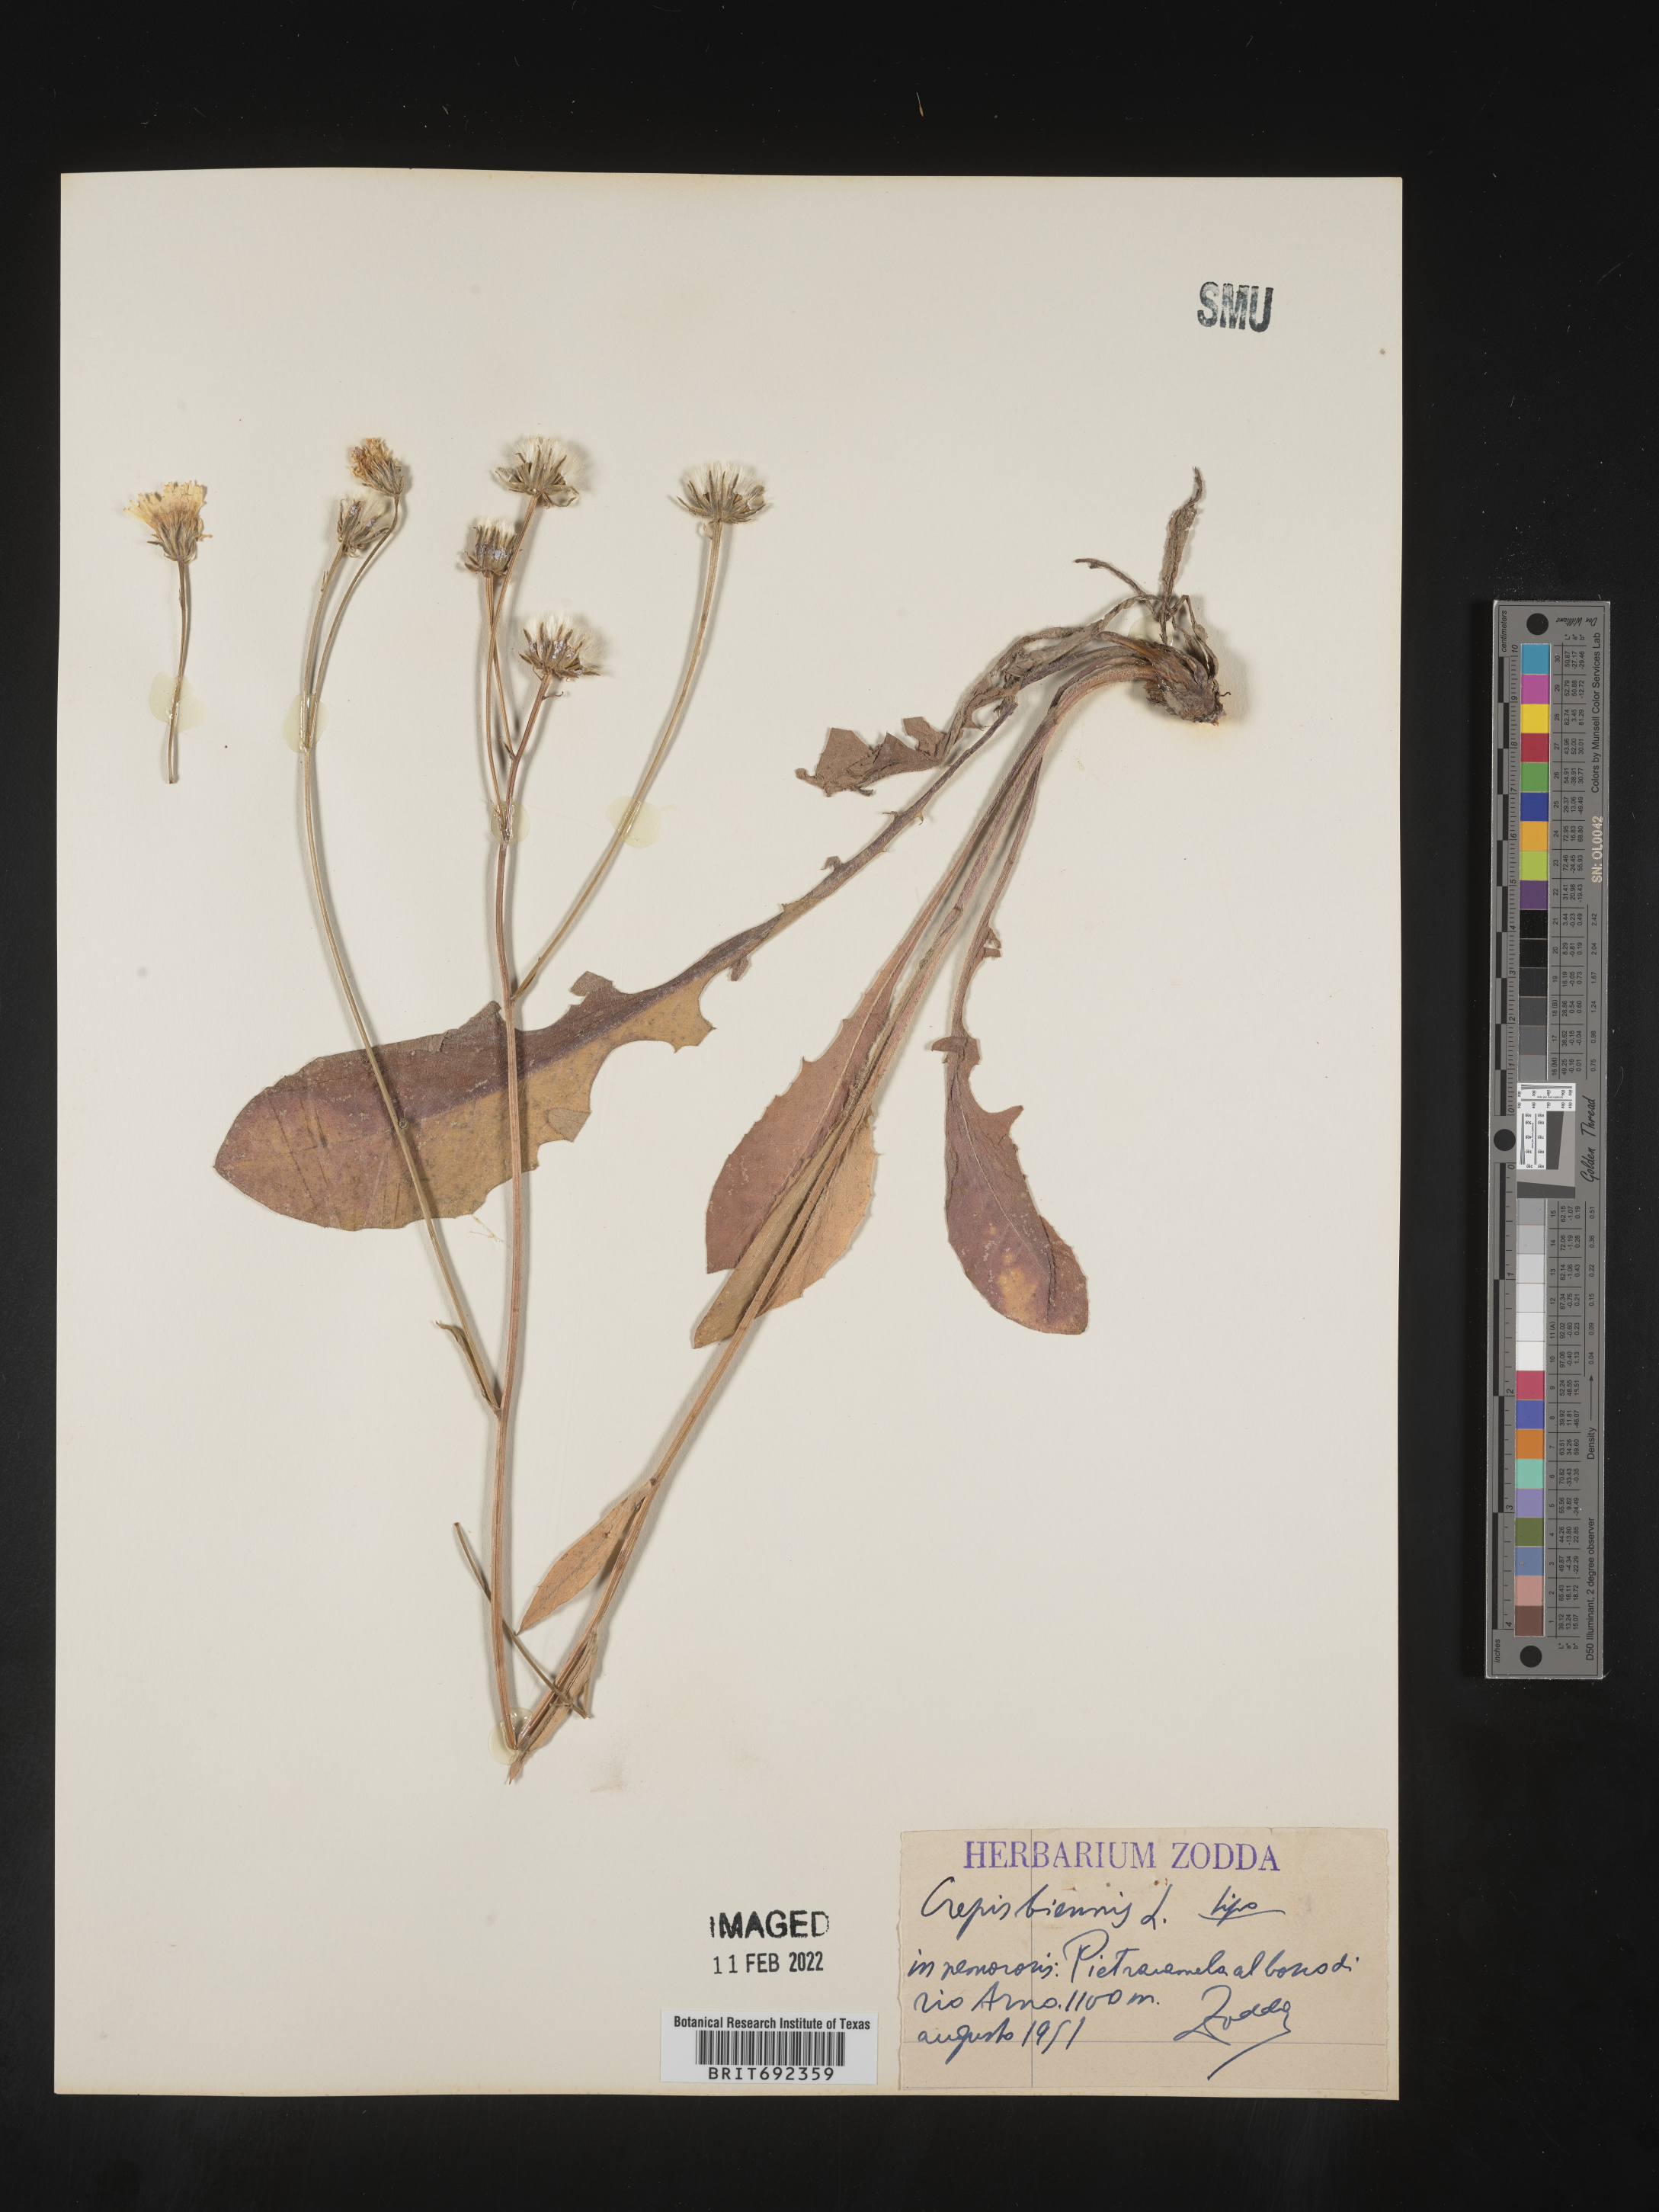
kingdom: Plantae
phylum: Tracheophyta
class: Magnoliopsida
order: Asterales
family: Asteraceae
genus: Crepis
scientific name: Crepis
